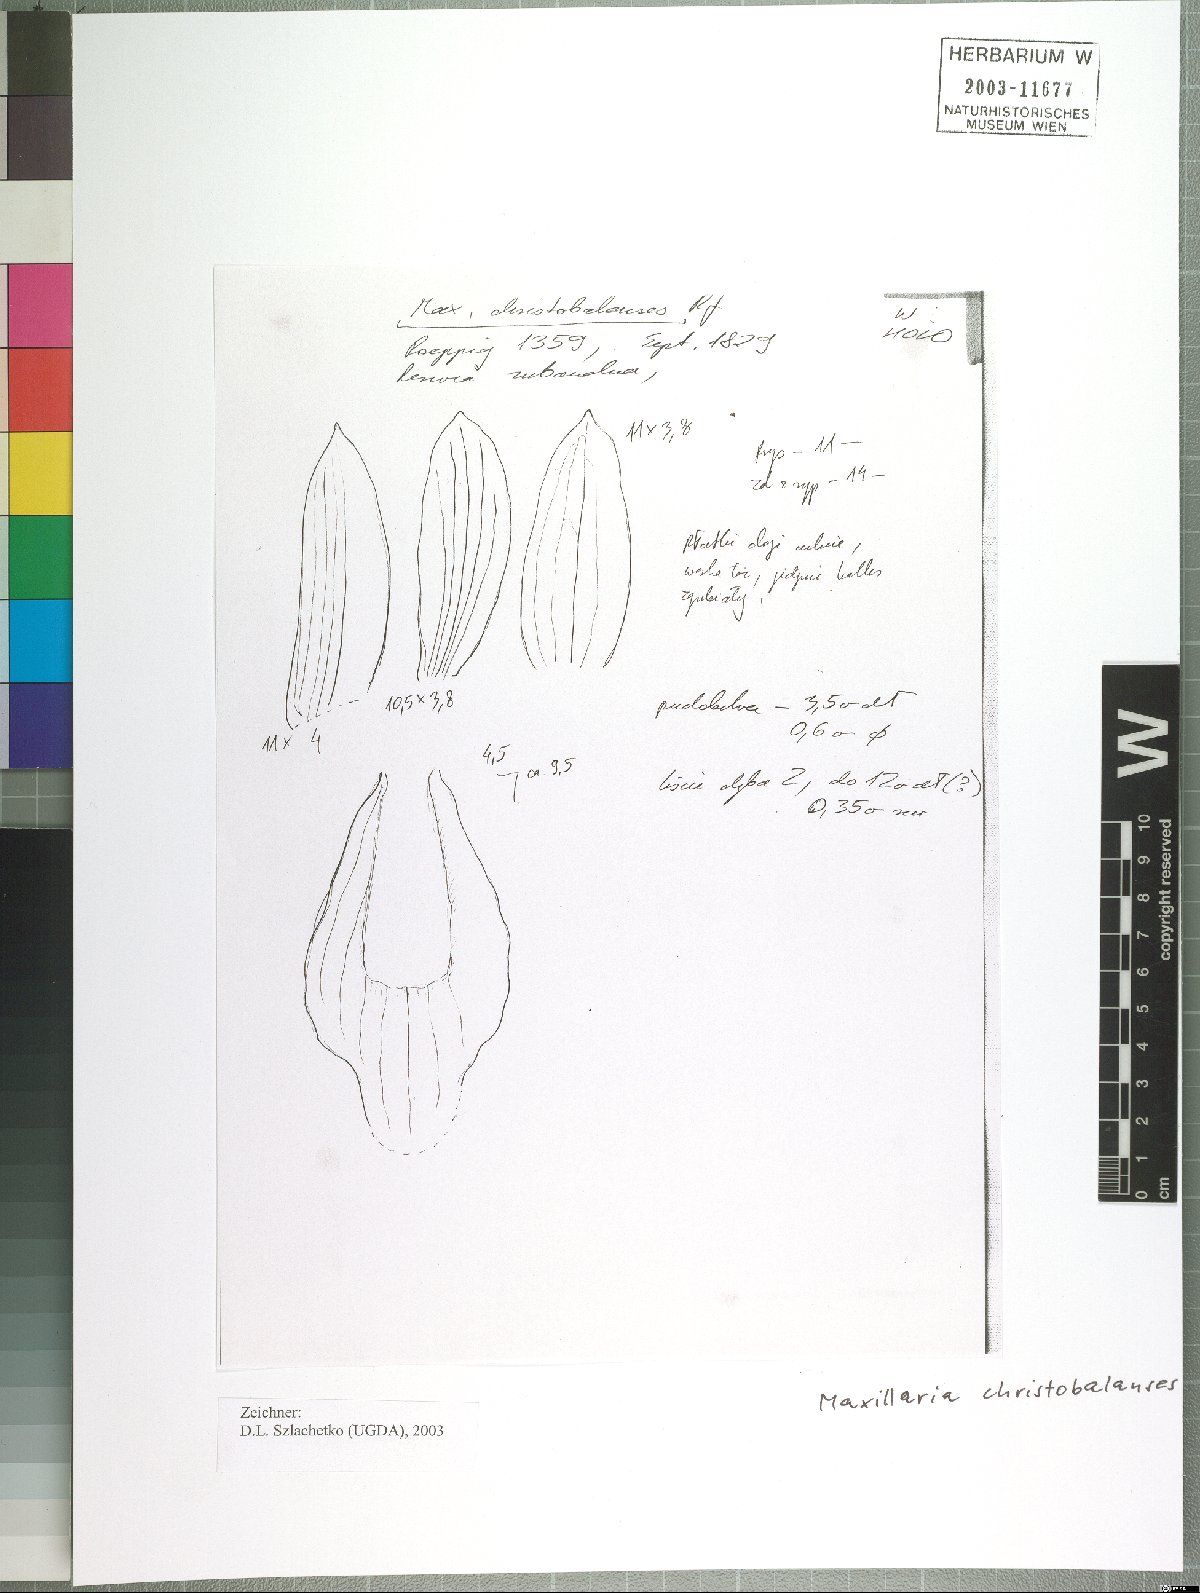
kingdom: Plantae
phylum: Tracheophyta
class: Liliopsida
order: Asparagales
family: Orchidaceae
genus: Maxillaria
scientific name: Maxillaria christobalensis
